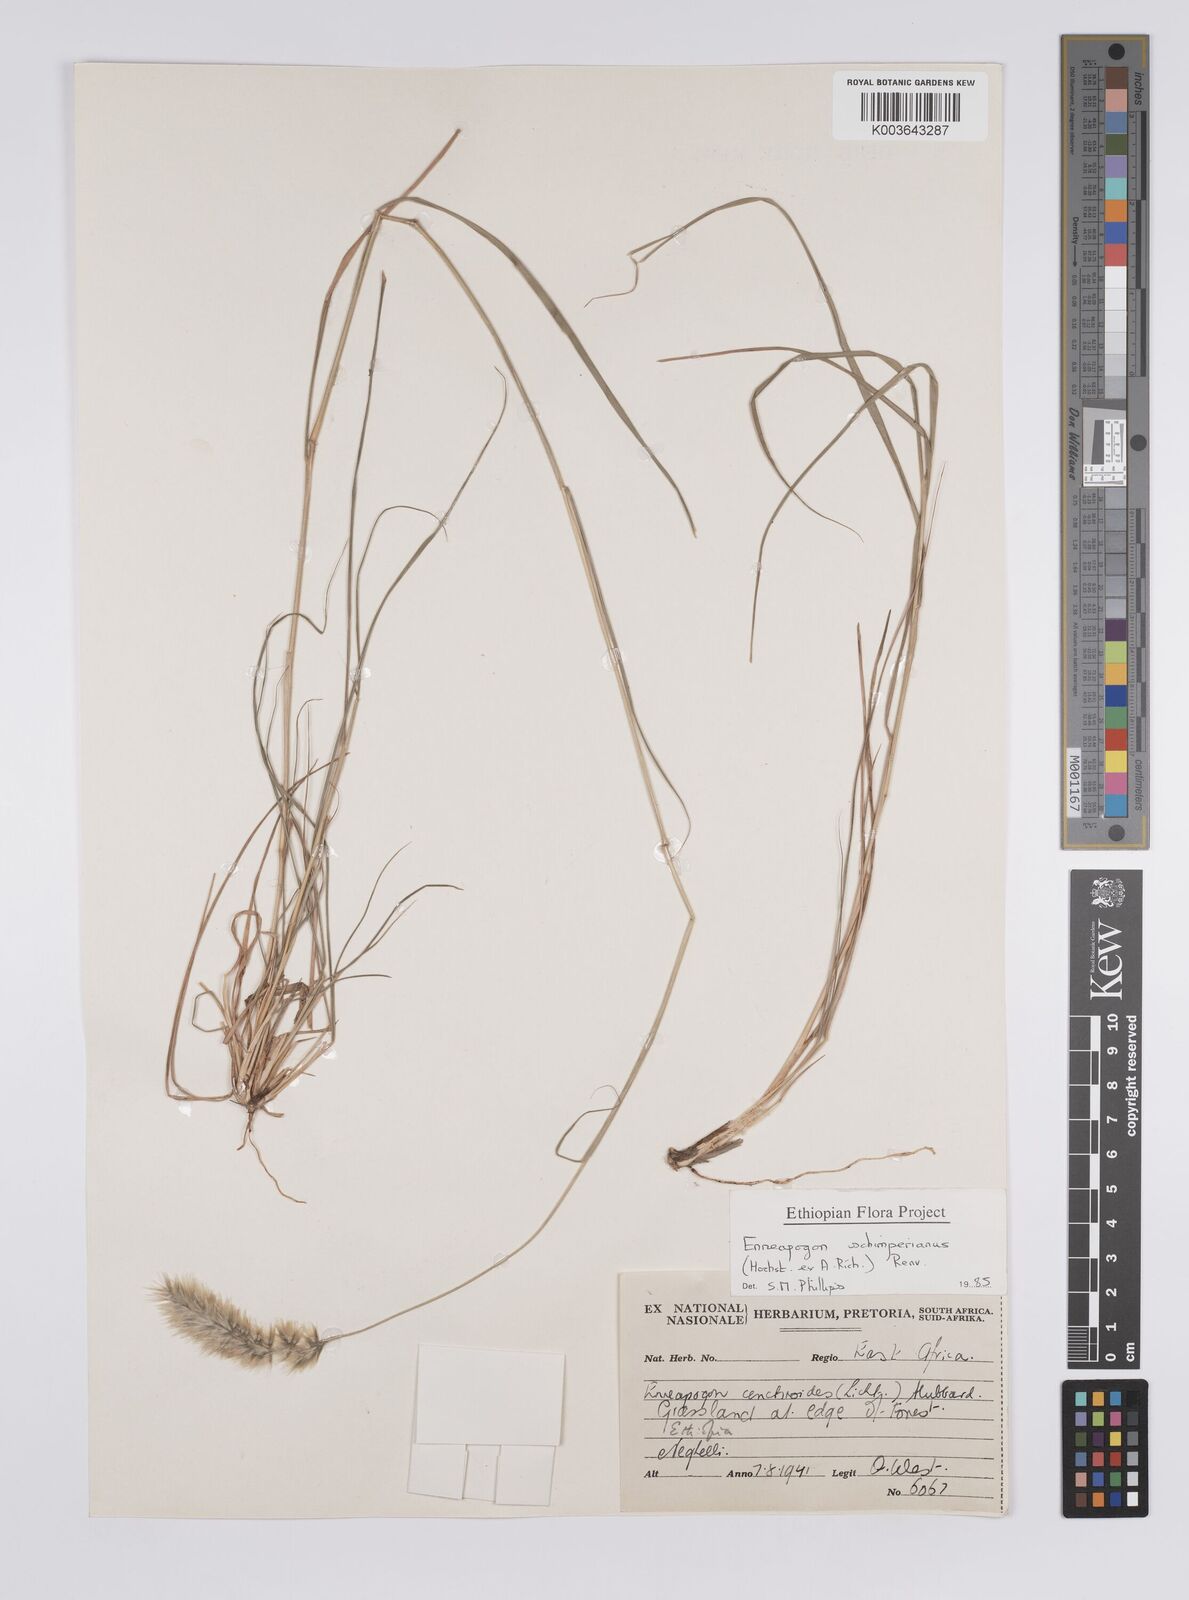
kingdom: Plantae
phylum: Tracheophyta
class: Liliopsida
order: Poales
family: Poaceae
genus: Enneapogon
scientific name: Enneapogon persicus
